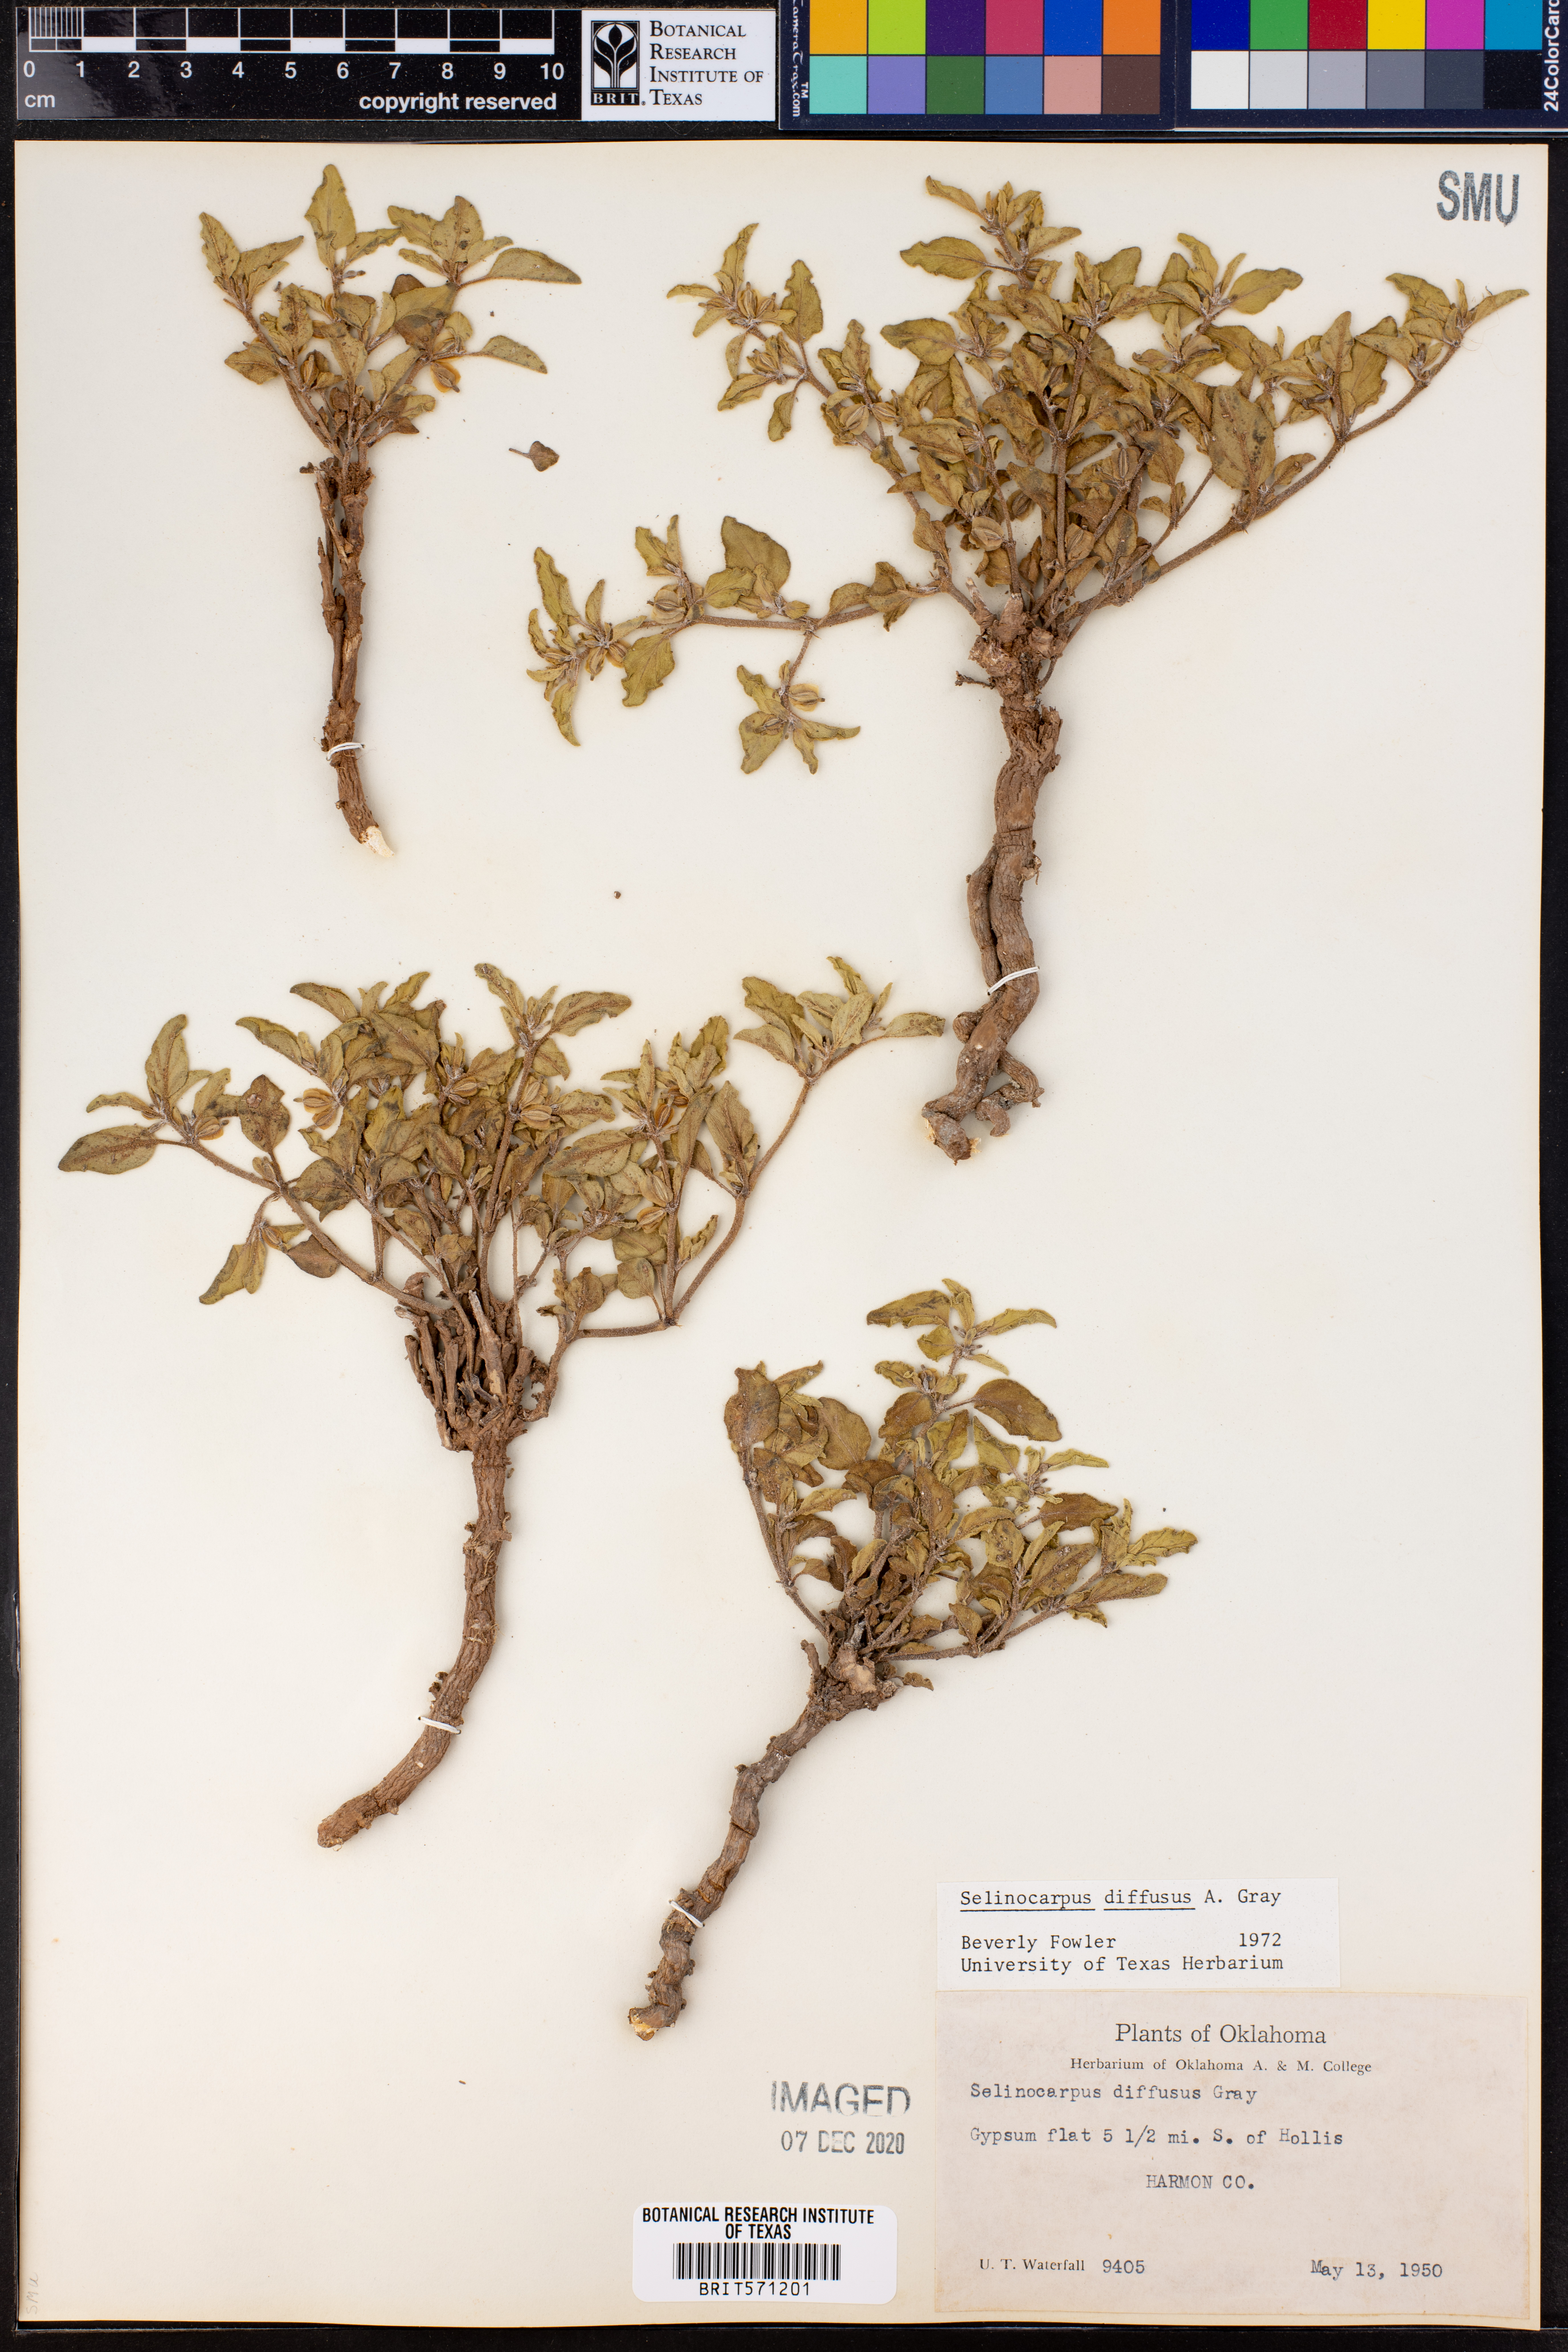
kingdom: Plantae
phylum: Tracheophyta
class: Magnoliopsida
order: Caryophyllales
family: Nyctaginaceae
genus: Acleisanthes
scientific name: Acleisanthes diffusa
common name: Spreading moonpod
